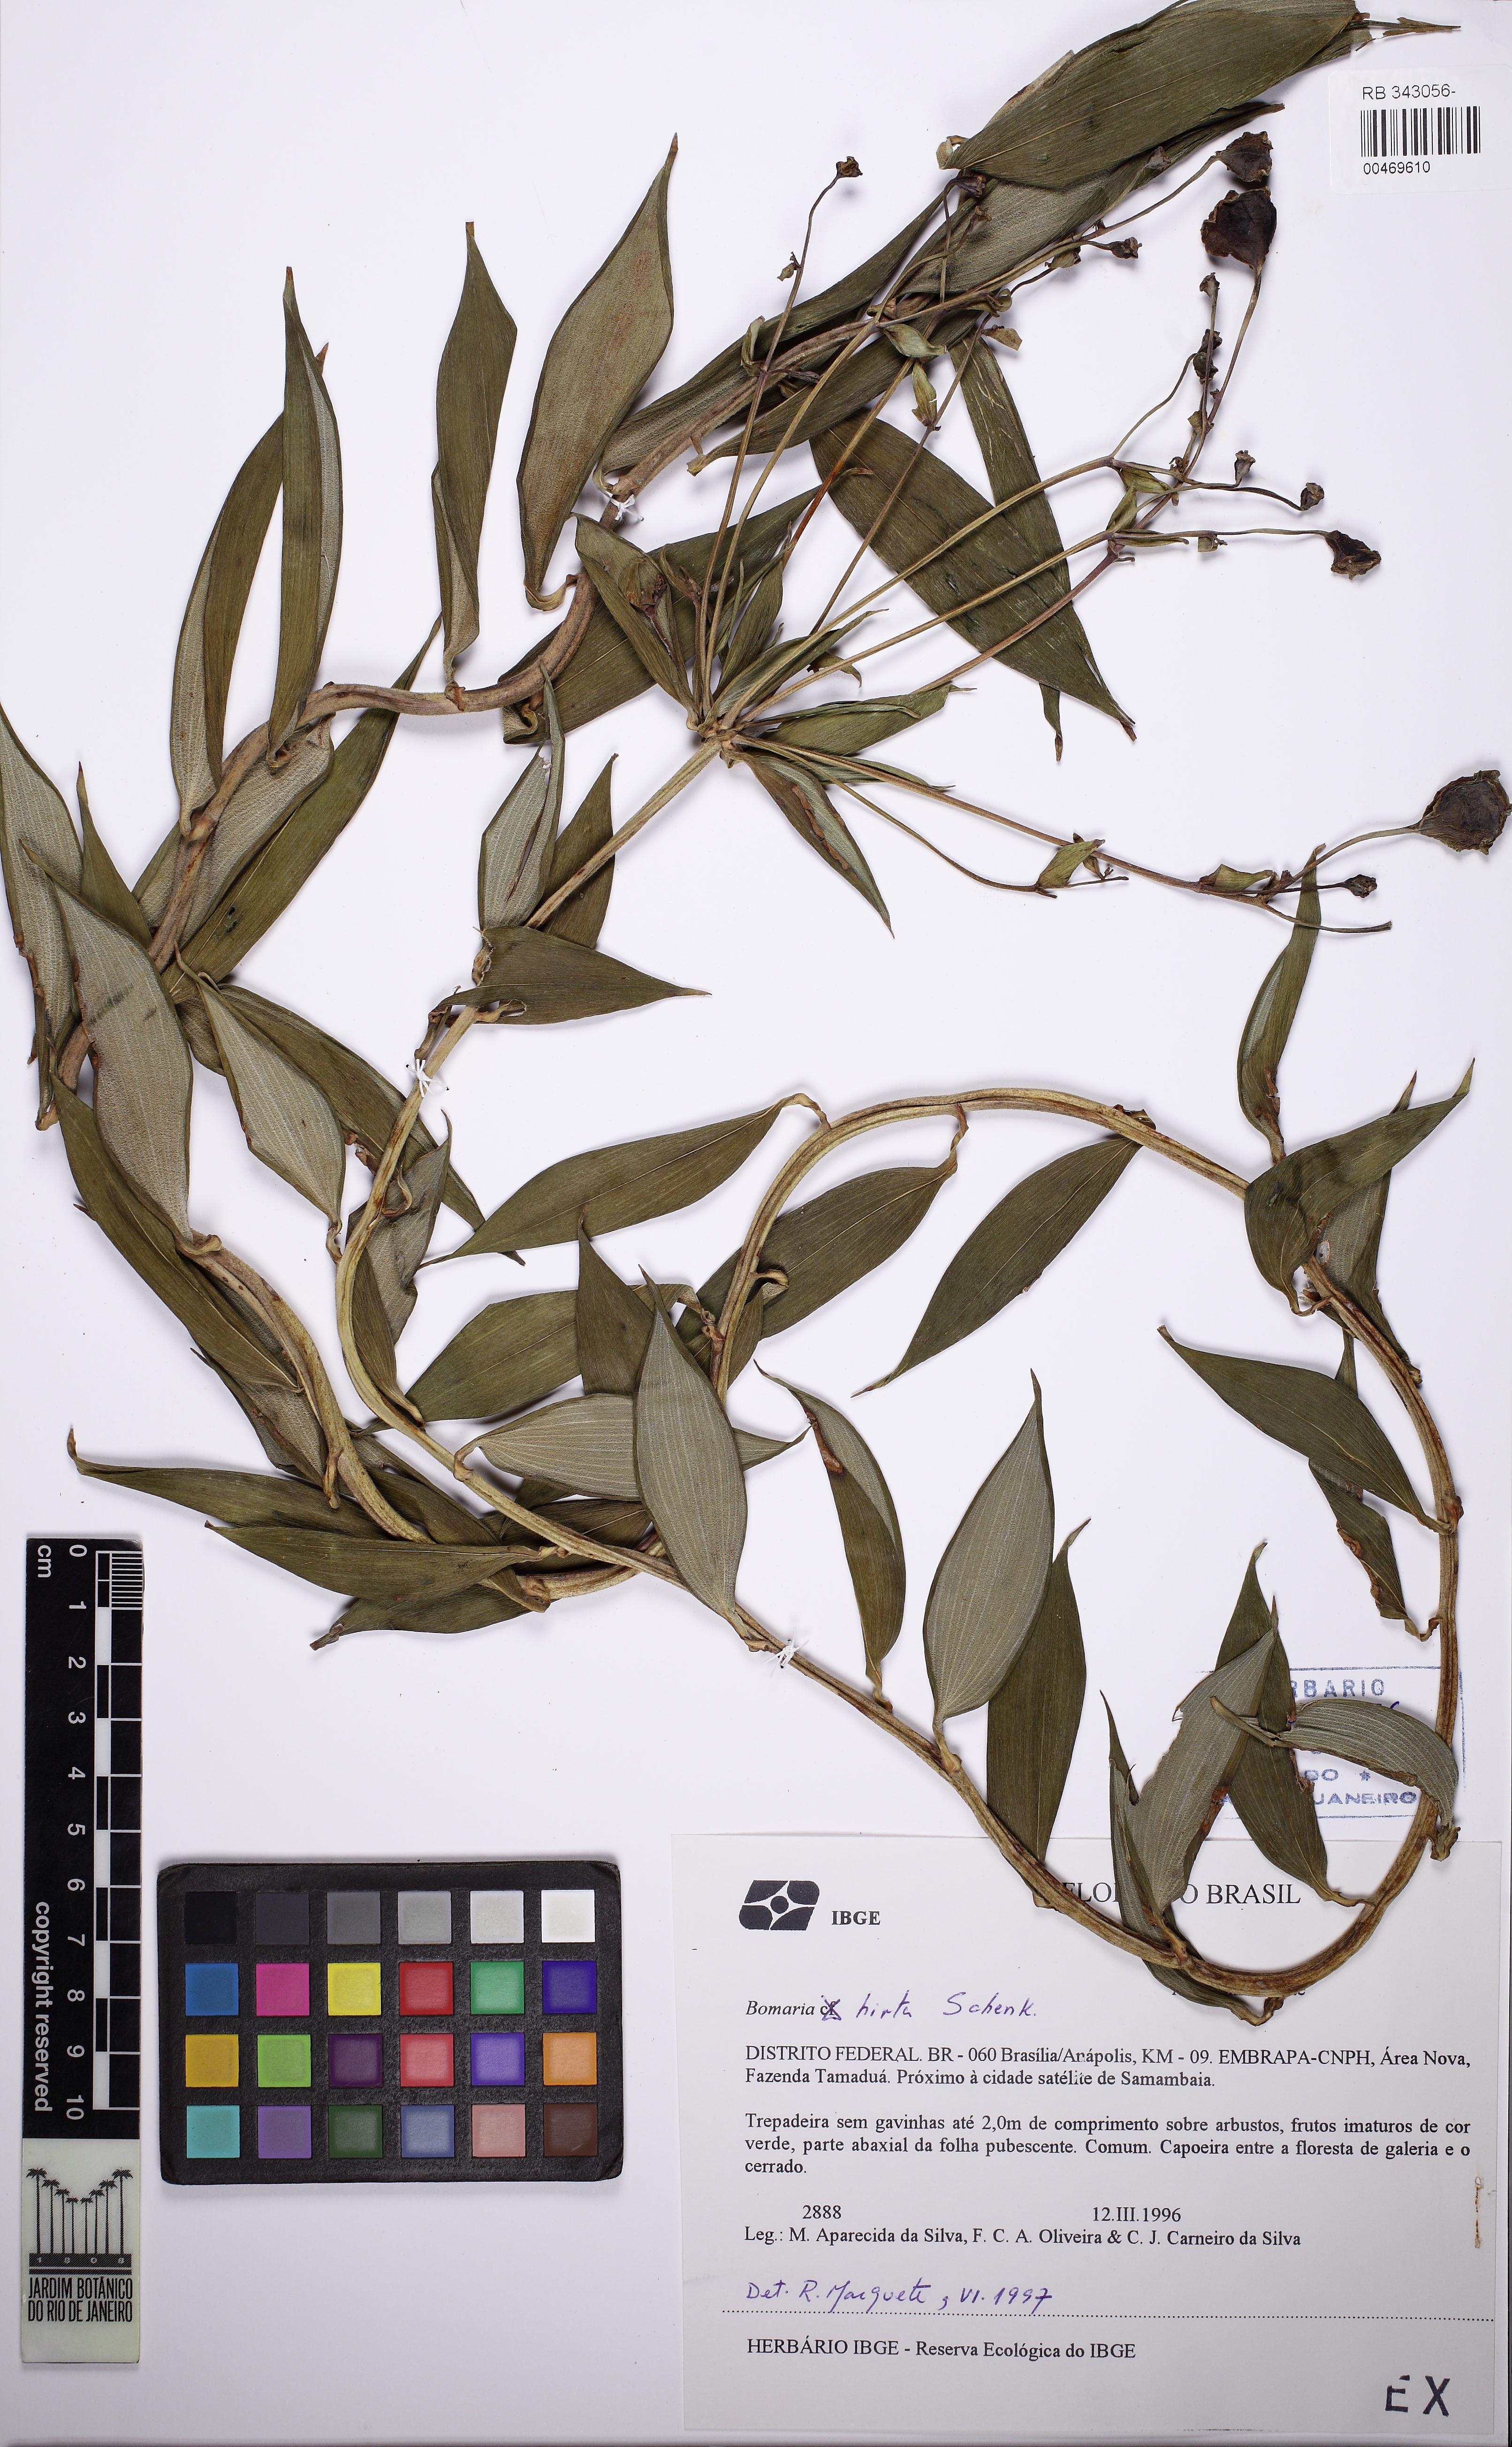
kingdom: Plantae
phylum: Tracheophyta
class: Liliopsida
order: Liliales
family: Alstroemeriaceae
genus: Bomarea
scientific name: Bomarea edulis
